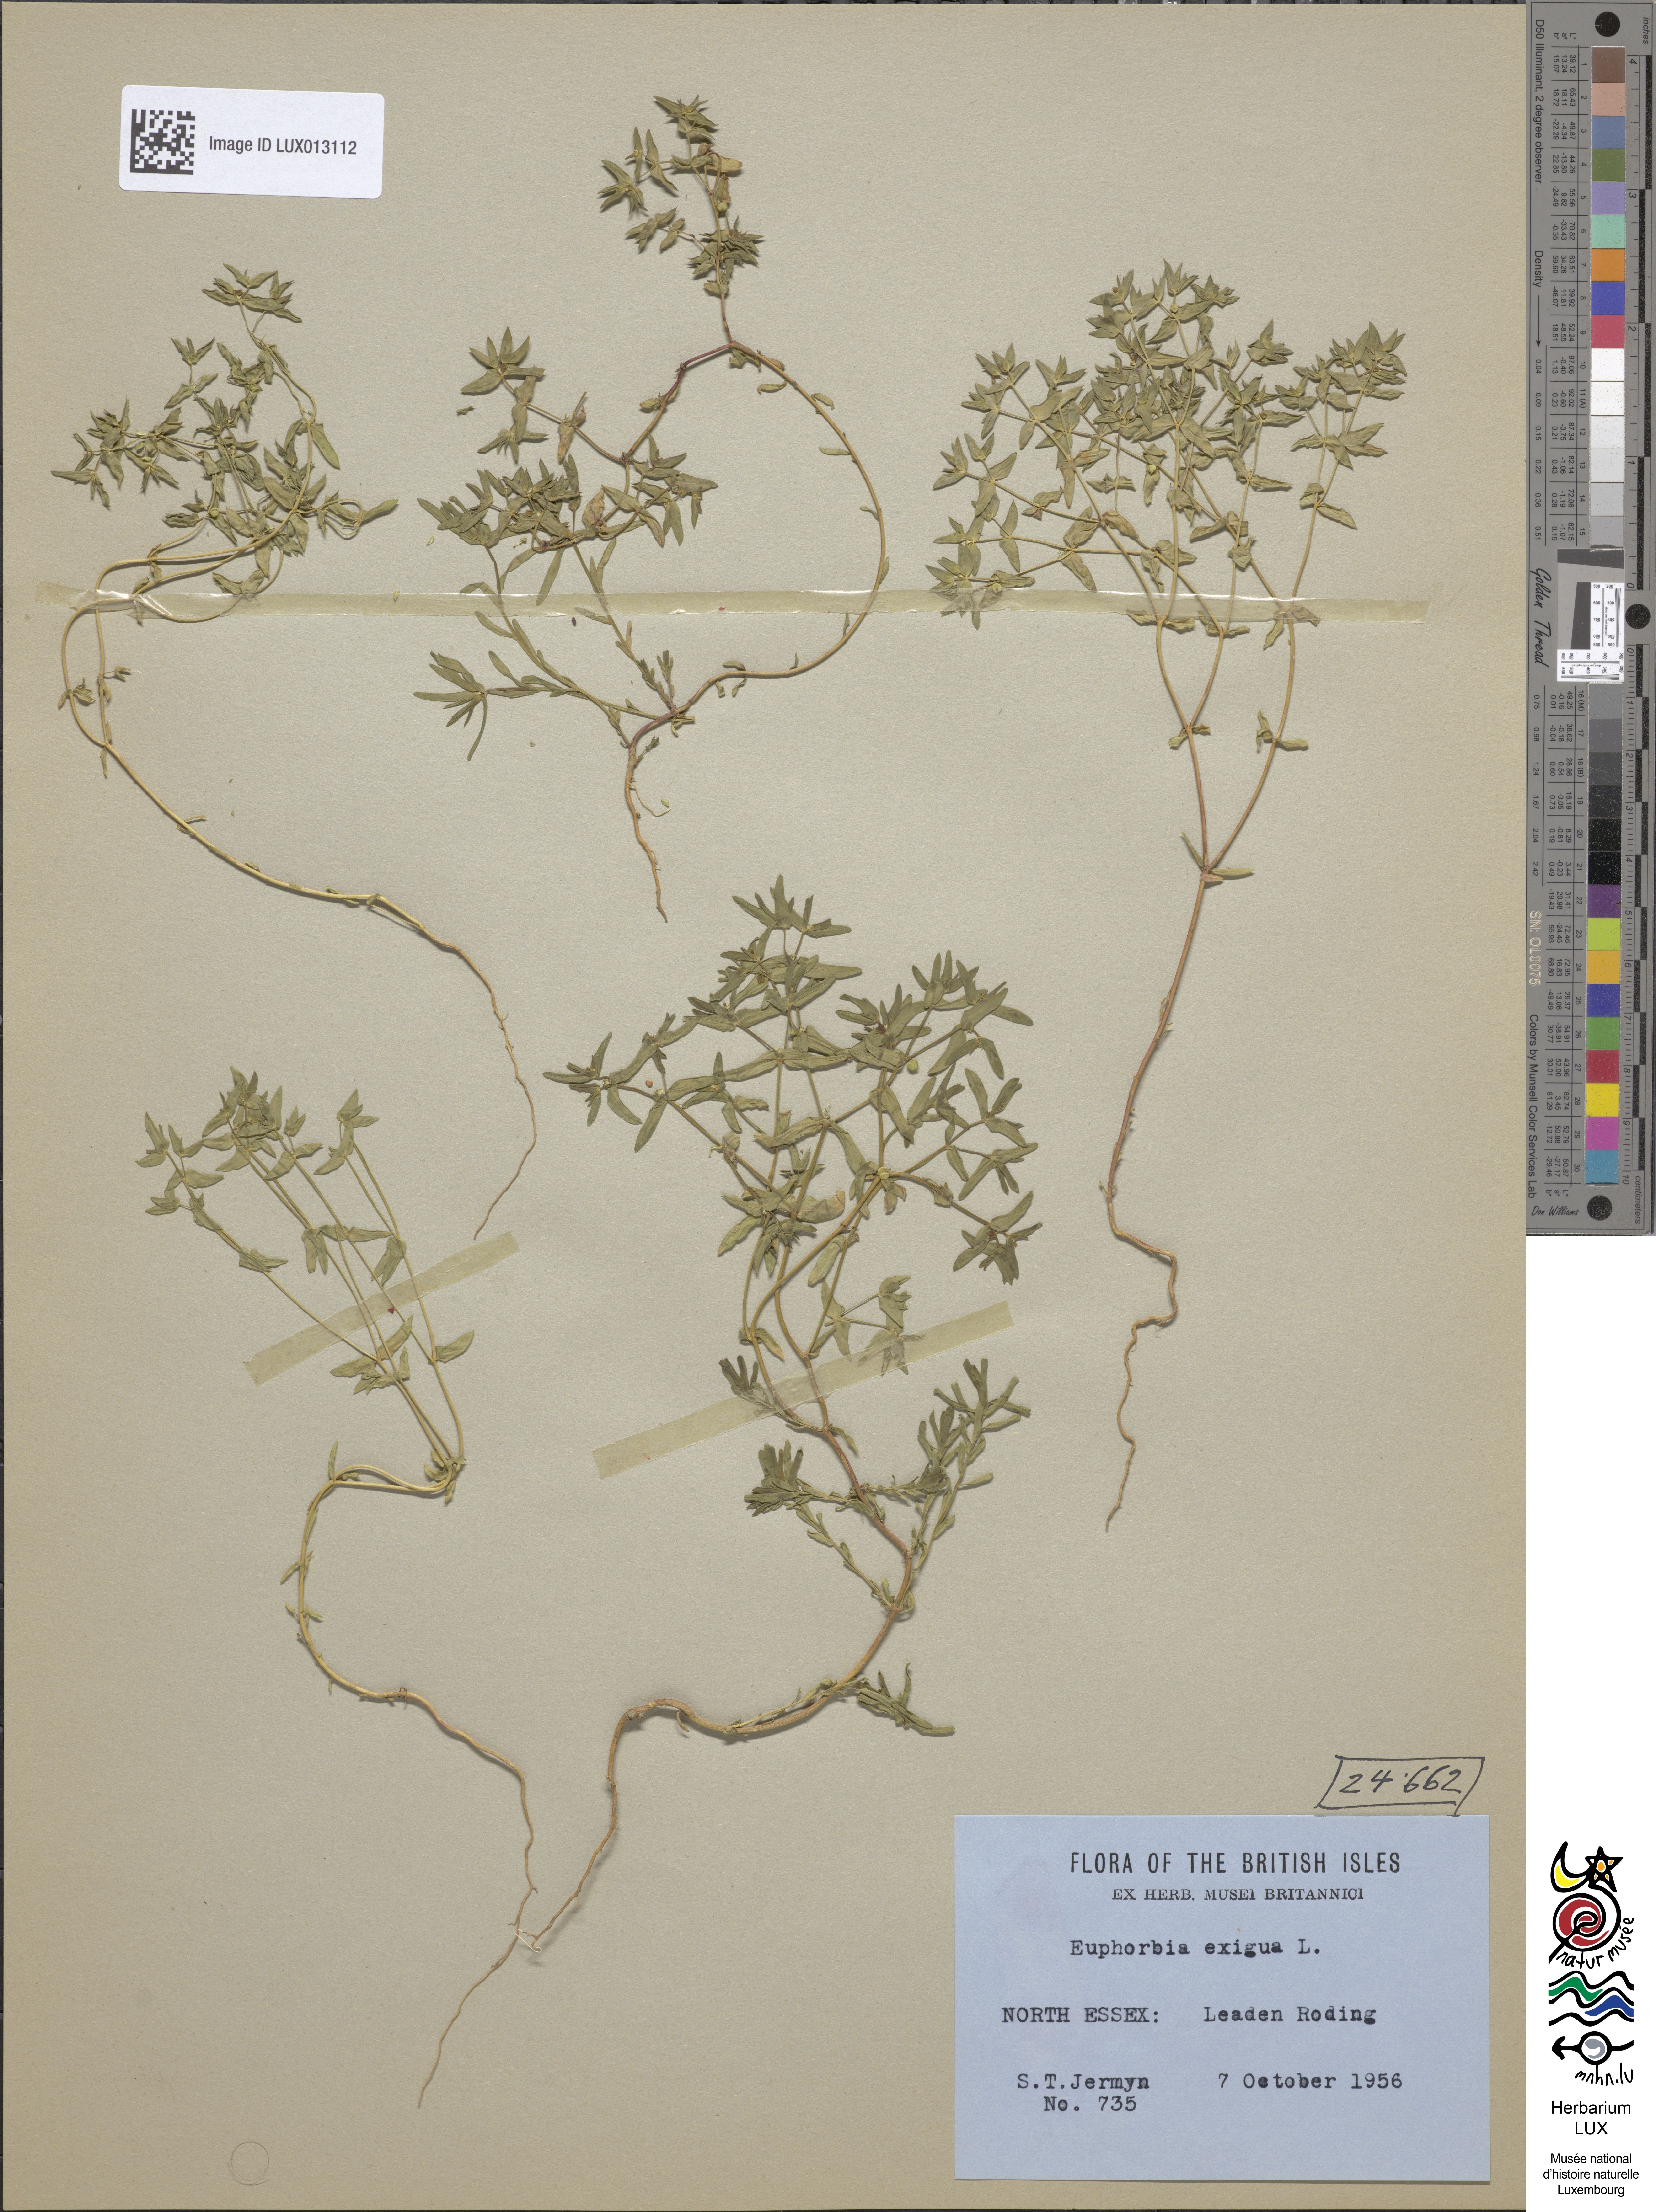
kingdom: Plantae
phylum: Tracheophyta
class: Magnoliopsida
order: Malpighiales
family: Euphorbiaceae
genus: Euphorbia
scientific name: Euphorbia exigua
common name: Dwarf spurge
